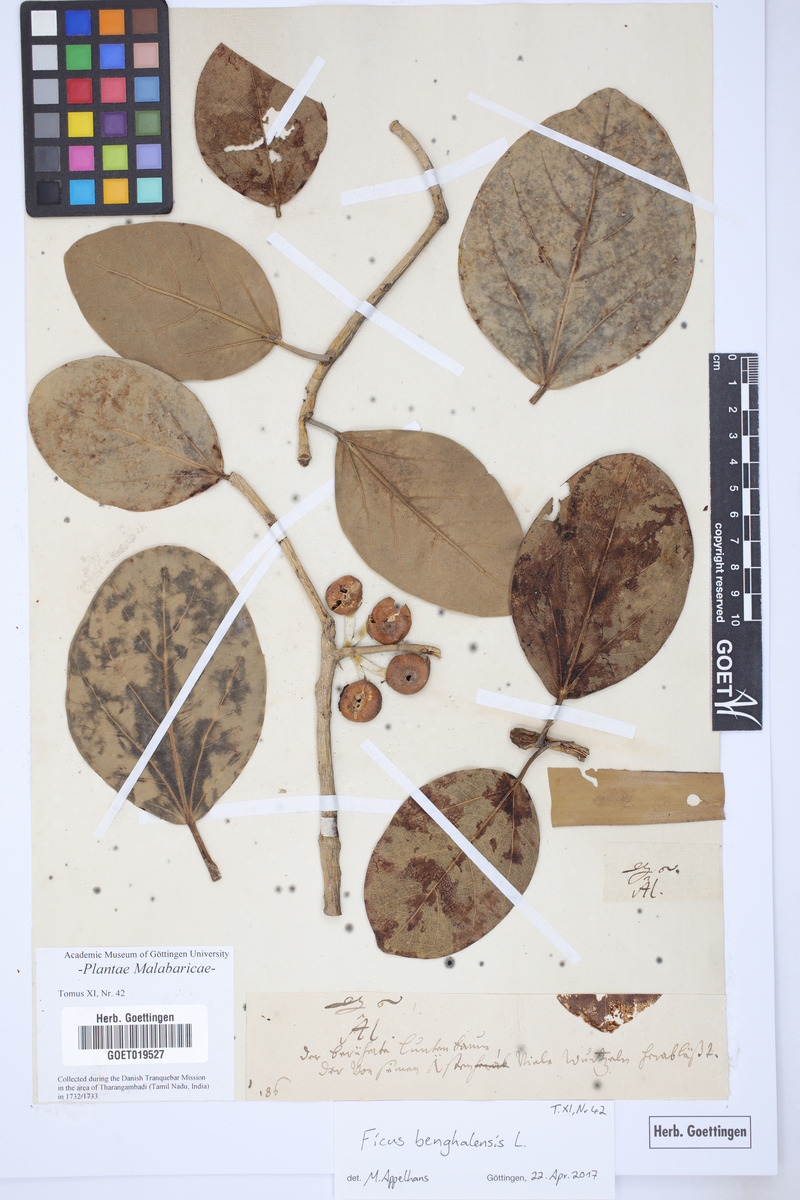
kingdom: Plantae
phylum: Tracheophyta
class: Magnoliopsida
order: Rosales
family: Moraceae
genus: Ficus
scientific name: Ficus benghalensis
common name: Indian banyan
